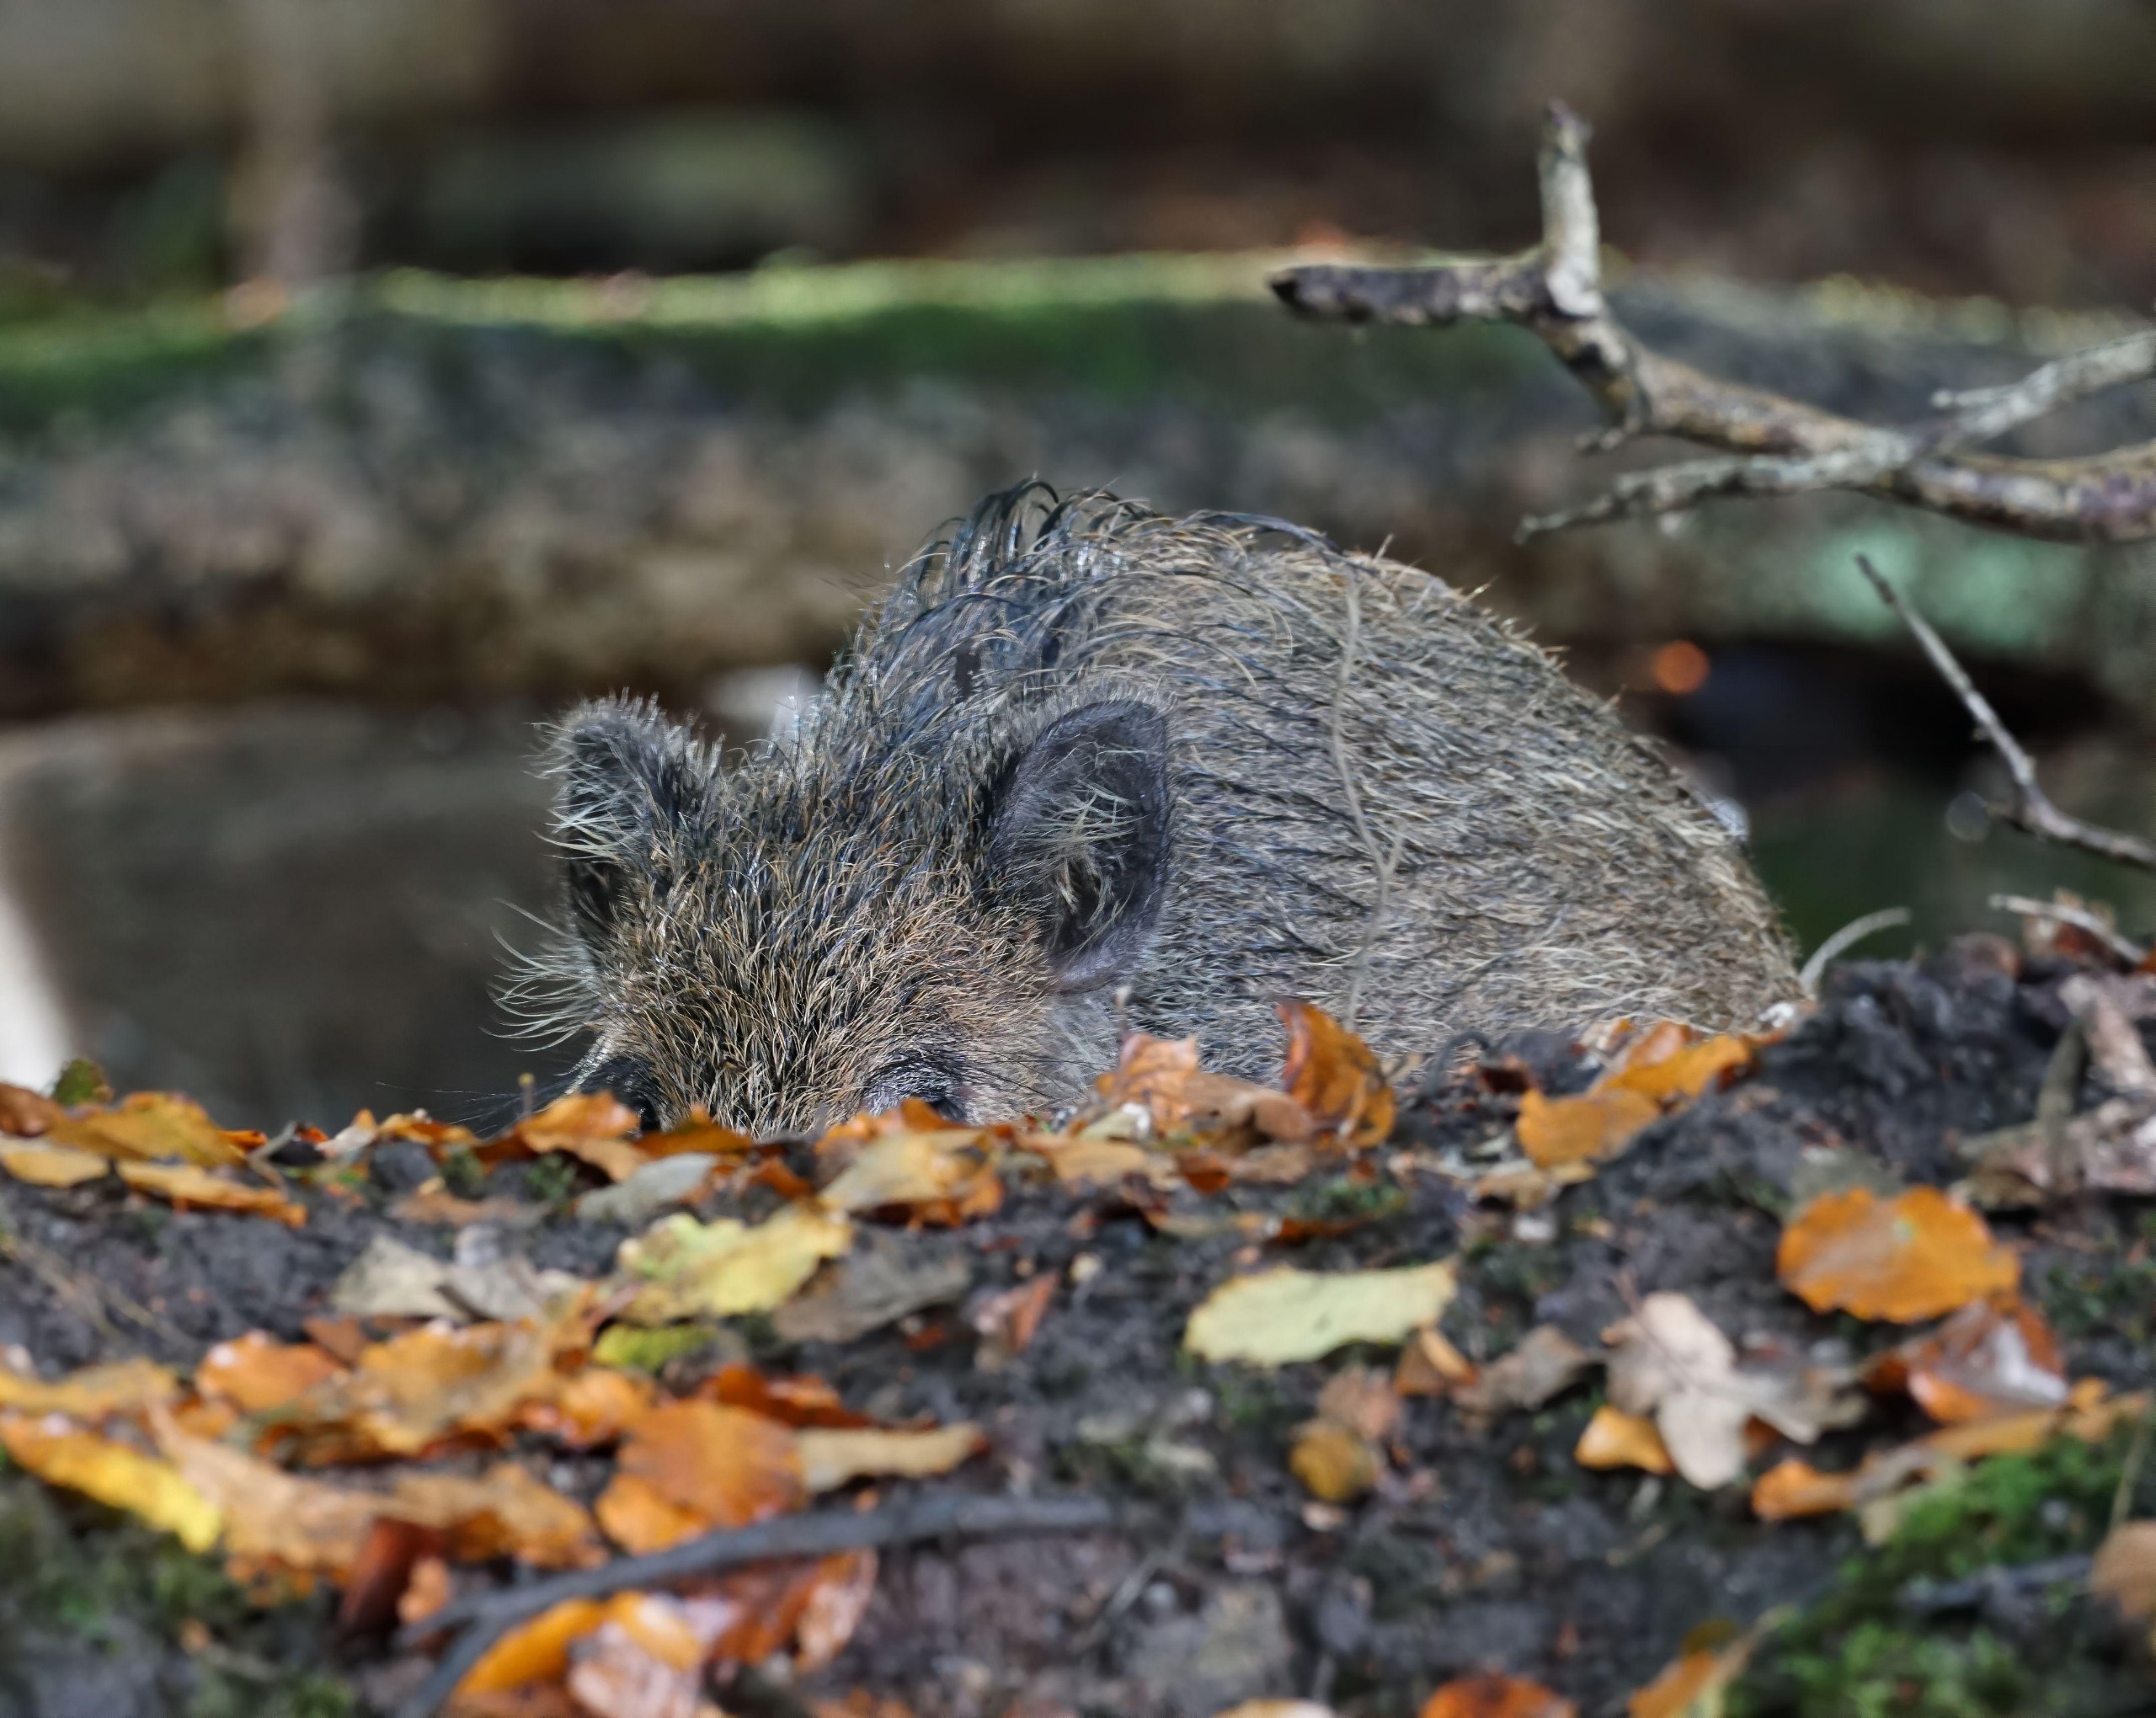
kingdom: Animalia
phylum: Chordata
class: Mammalia
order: Artiodactyla
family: Suidae
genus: Sus
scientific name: Sus scrofa
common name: Vildsvin
